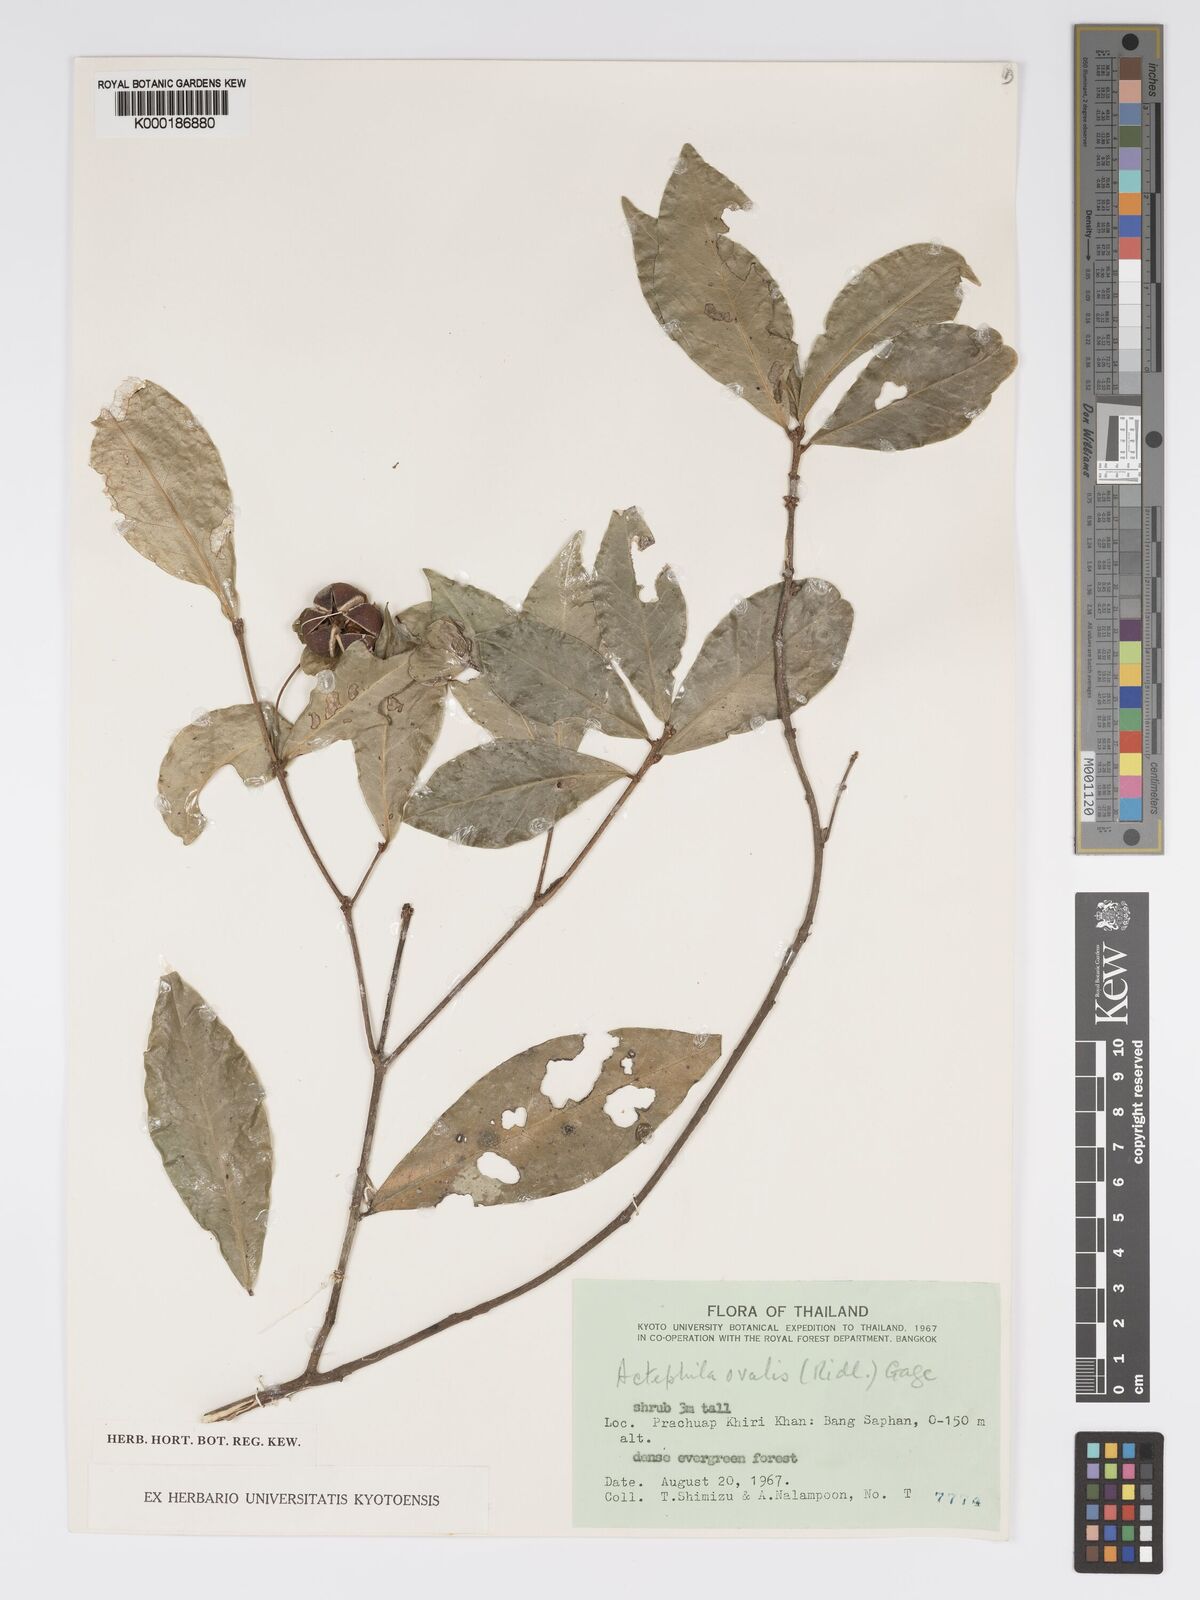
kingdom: Plantae
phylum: Tracheophyta
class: Magnoliopsida
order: Malpighiales
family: Phyllanthaceae
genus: Actephila
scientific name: Actephila ovalis
